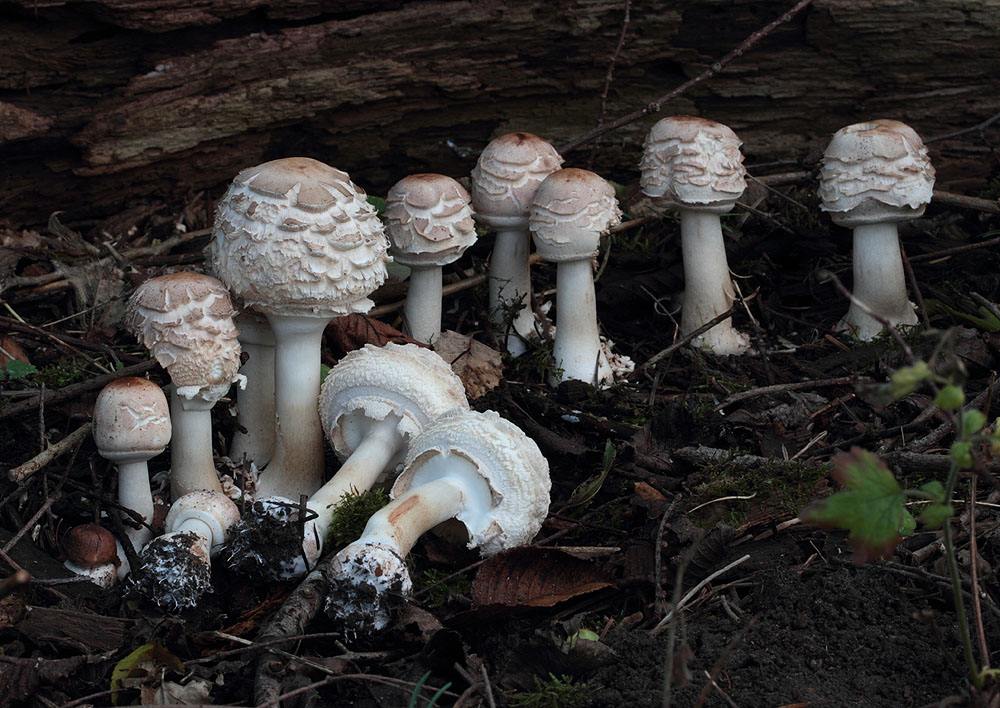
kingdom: Fungi
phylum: Basidiomycota
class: Agaricomycetes
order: Agaricales
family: Agaricaceae
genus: Chlorophyllum
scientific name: Chlorophyllum rhacodes
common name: ægte rabarberhat
